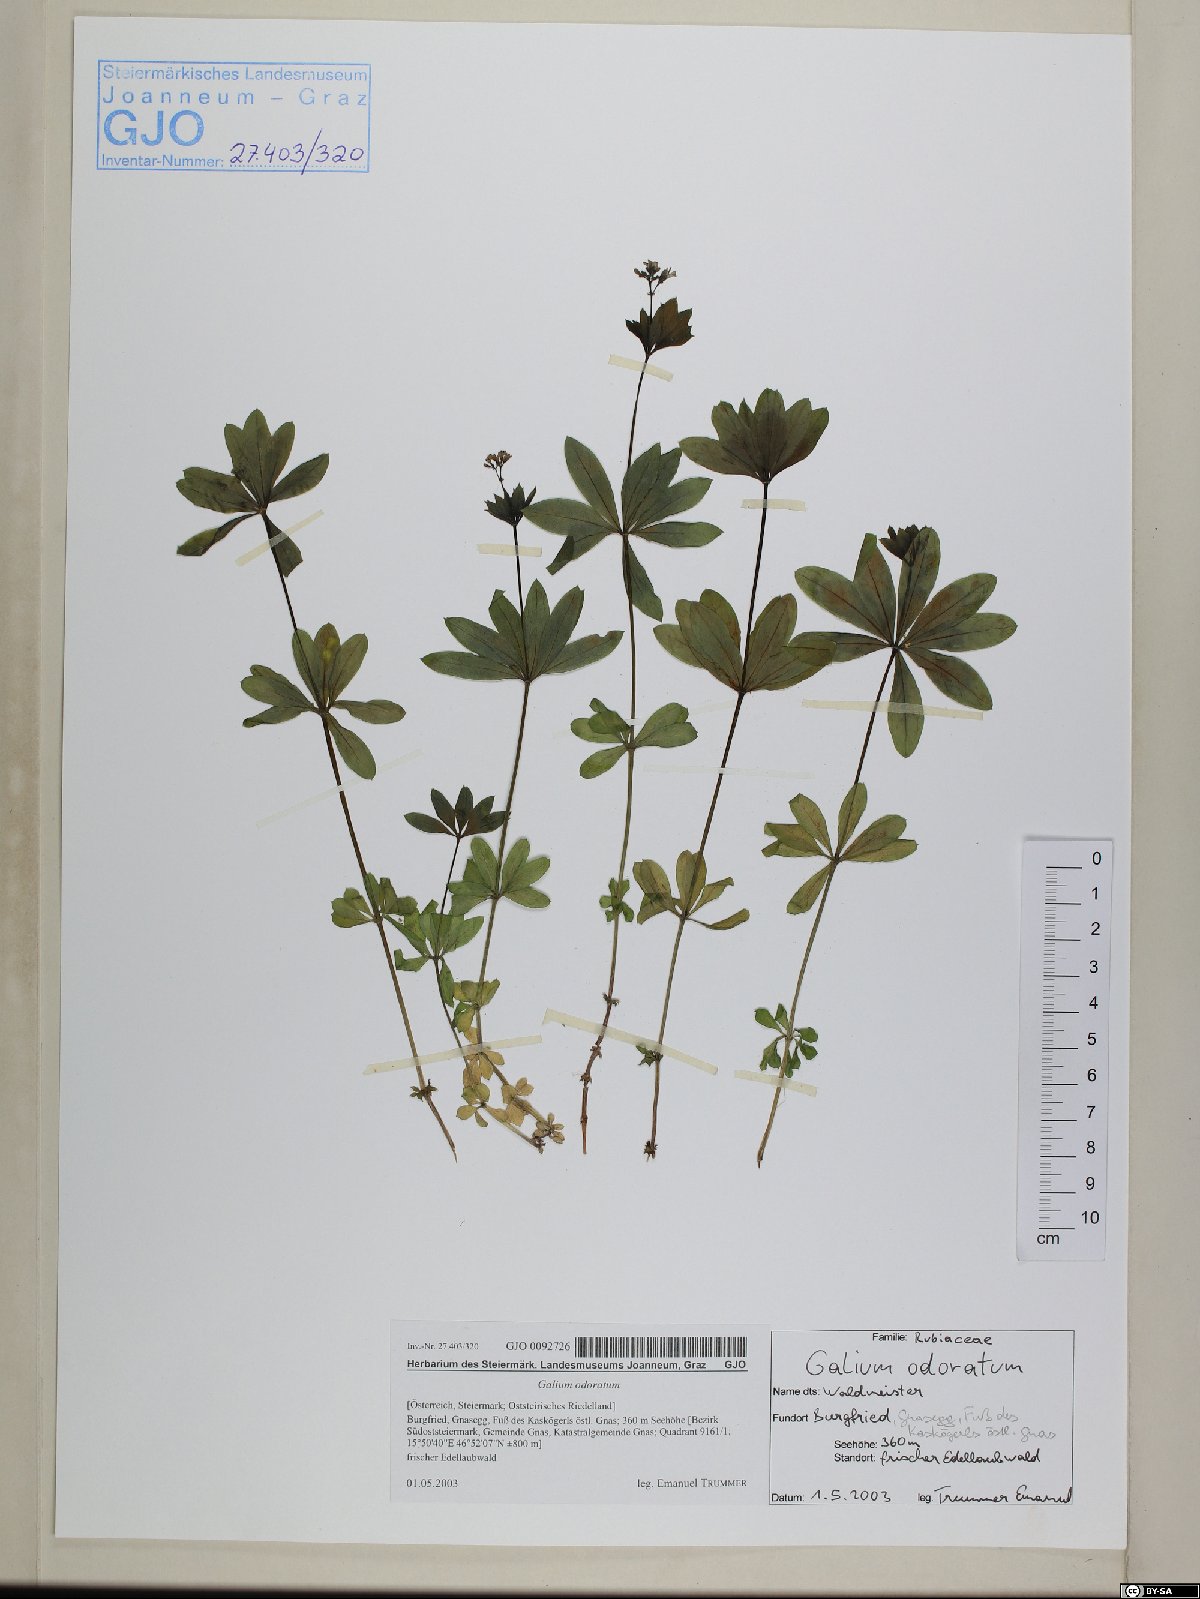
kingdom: Plantae
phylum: Tracheophyta
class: Magnoliopsida
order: Gentianales
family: Rubiaceae
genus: Galium
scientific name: Galium odoratum
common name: Sweet woodruff
